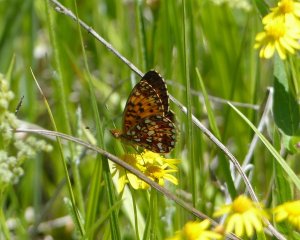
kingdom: Animalia
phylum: Arthropoda
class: Insecta
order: Lepidoptera
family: Nymphalidae
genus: Boloria
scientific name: Boloria selene
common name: Silver-bordered Fritillary
